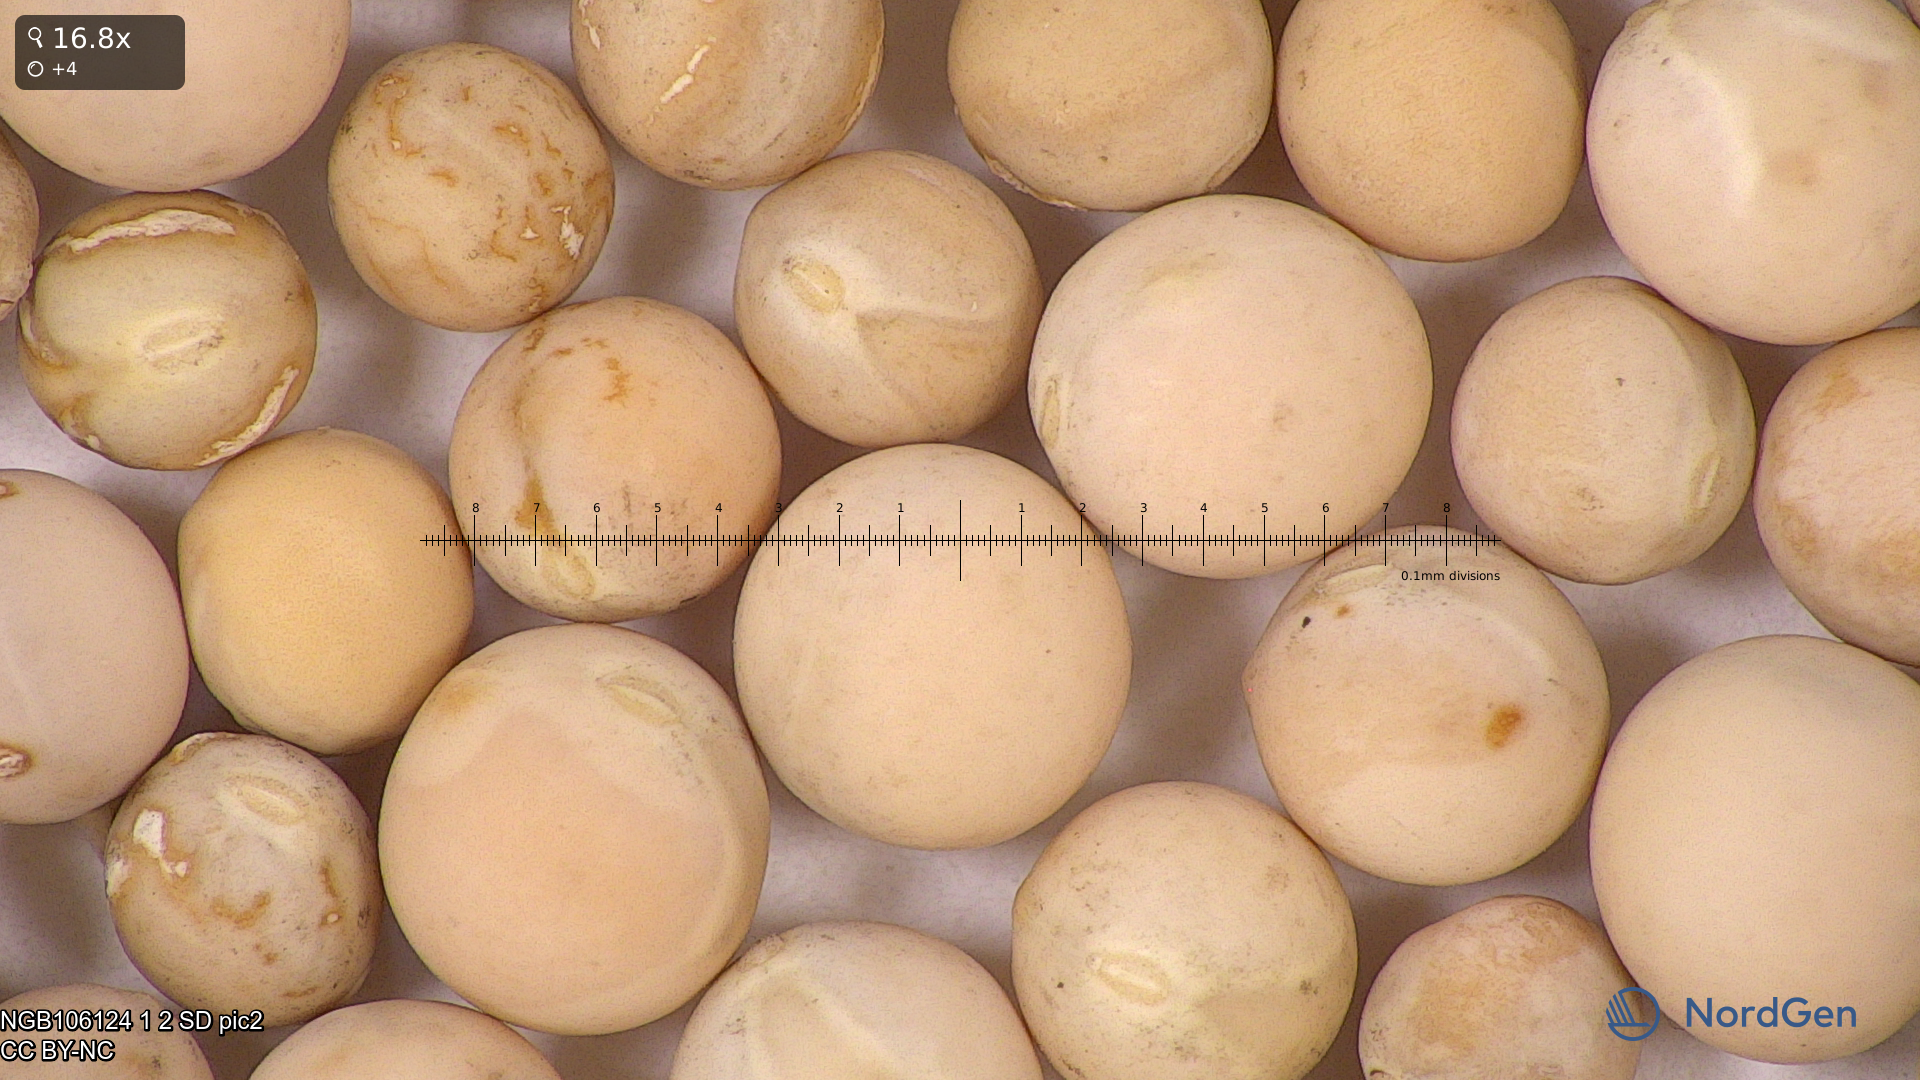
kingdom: Plantae
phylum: Tracheophyta
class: Magnoliopsida
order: Fabales
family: Fabaceae
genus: Lathyrus
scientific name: Lathyrus oleraceus
